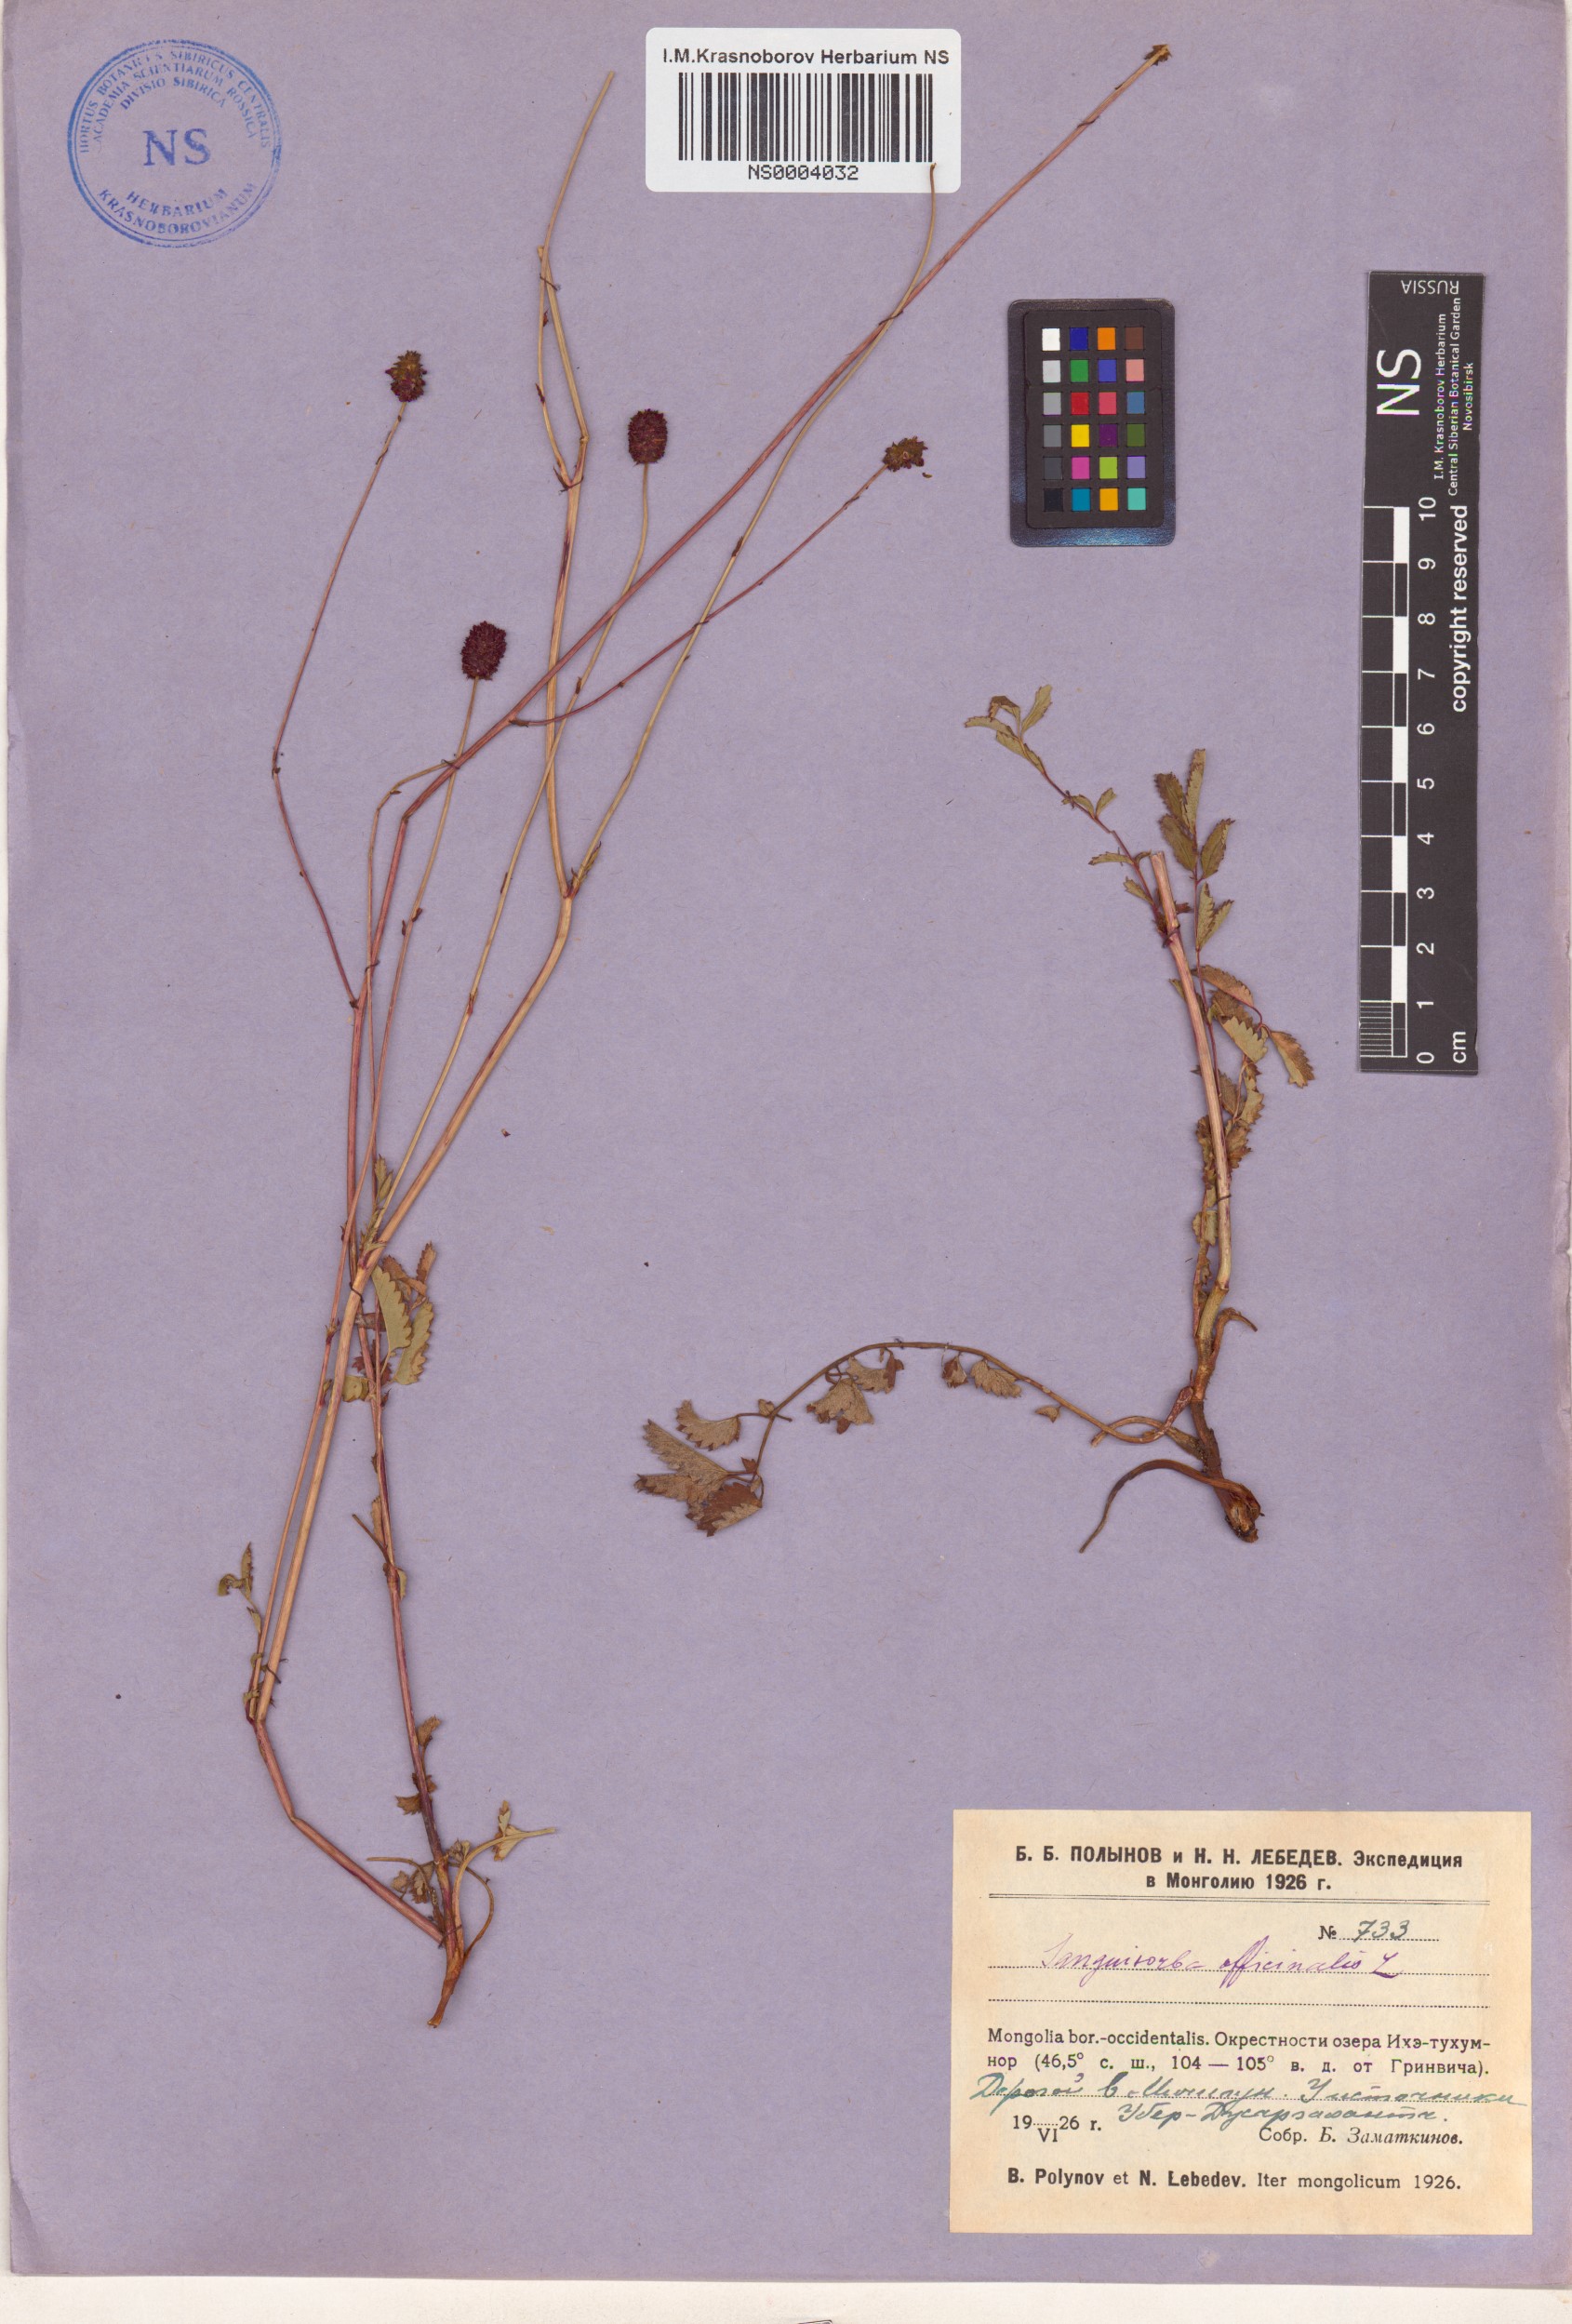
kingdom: Plantae
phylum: Tracheophyta
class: Magnoliopsida
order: Rosales
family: Rosaceae
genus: Sanguisorba
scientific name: Sanguisorba officinalis
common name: Great burnet
